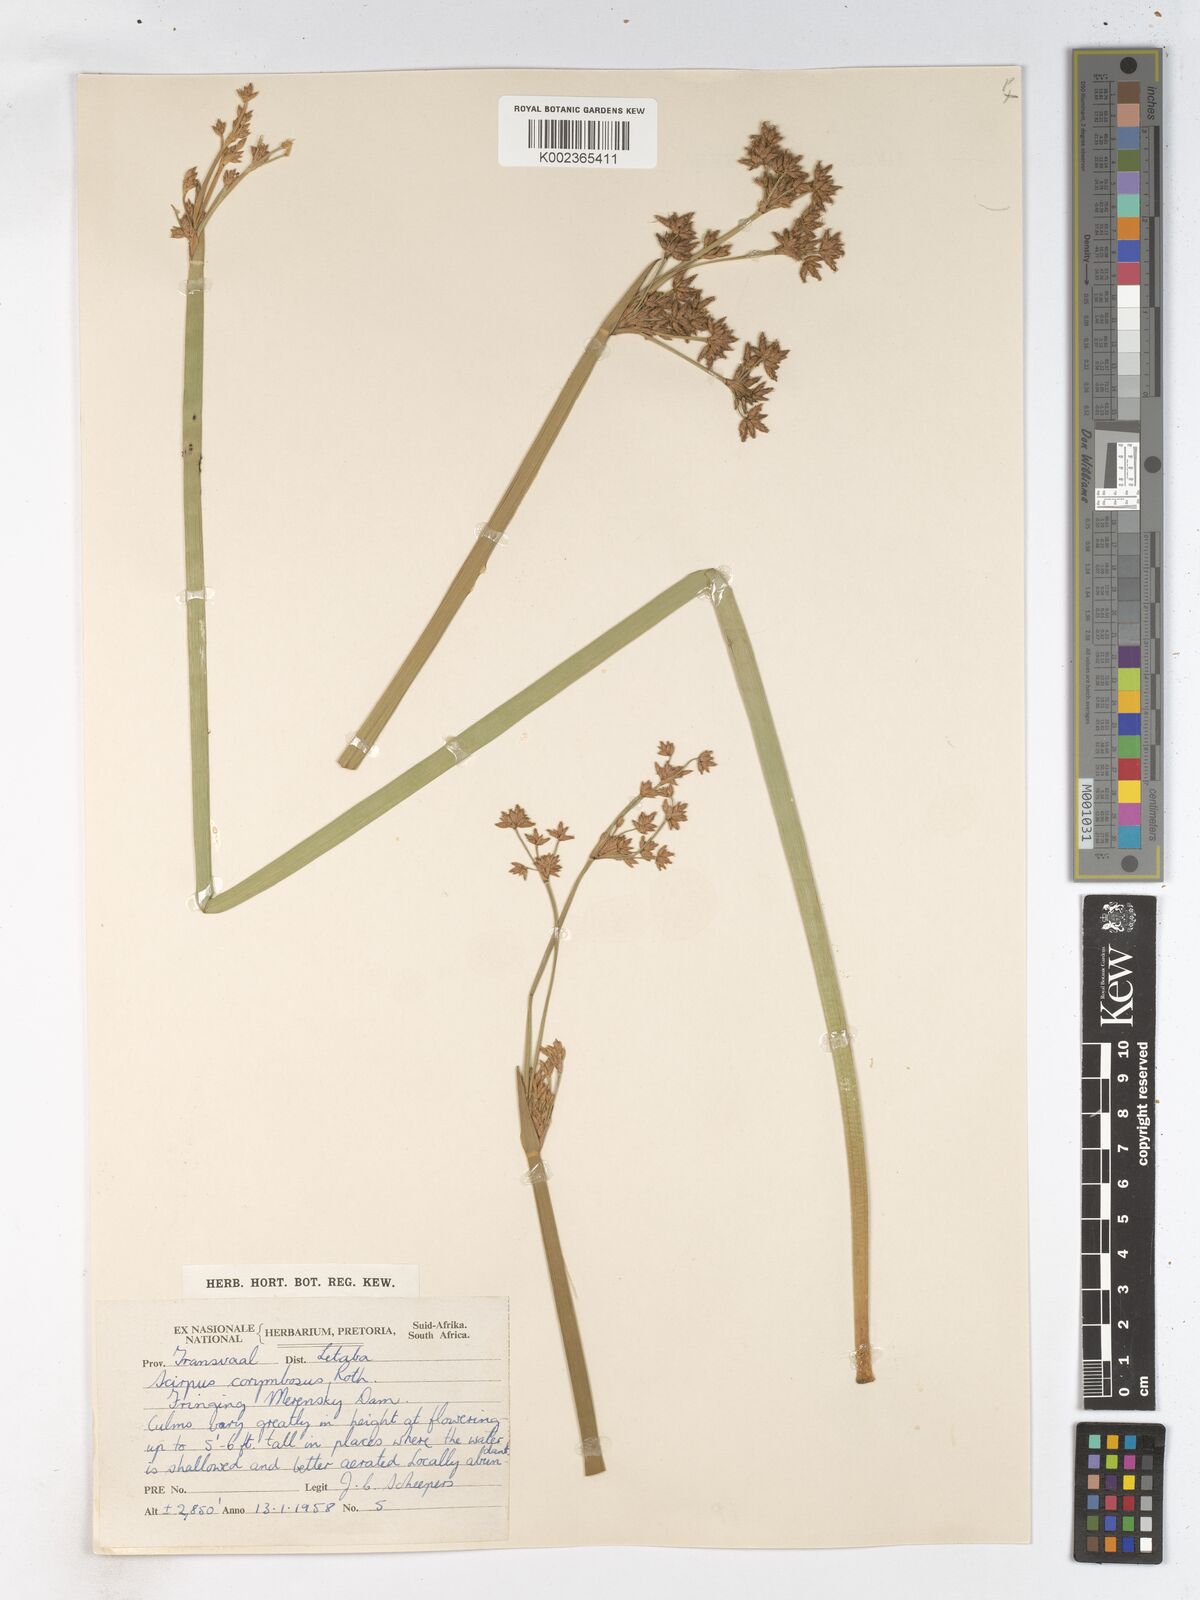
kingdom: Plantae
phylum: Tracheophyta
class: Liliopsida
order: Poales
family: Cyperaceae
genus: Schoenoplectiella
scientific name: Schoenoplectiella brachyceras
